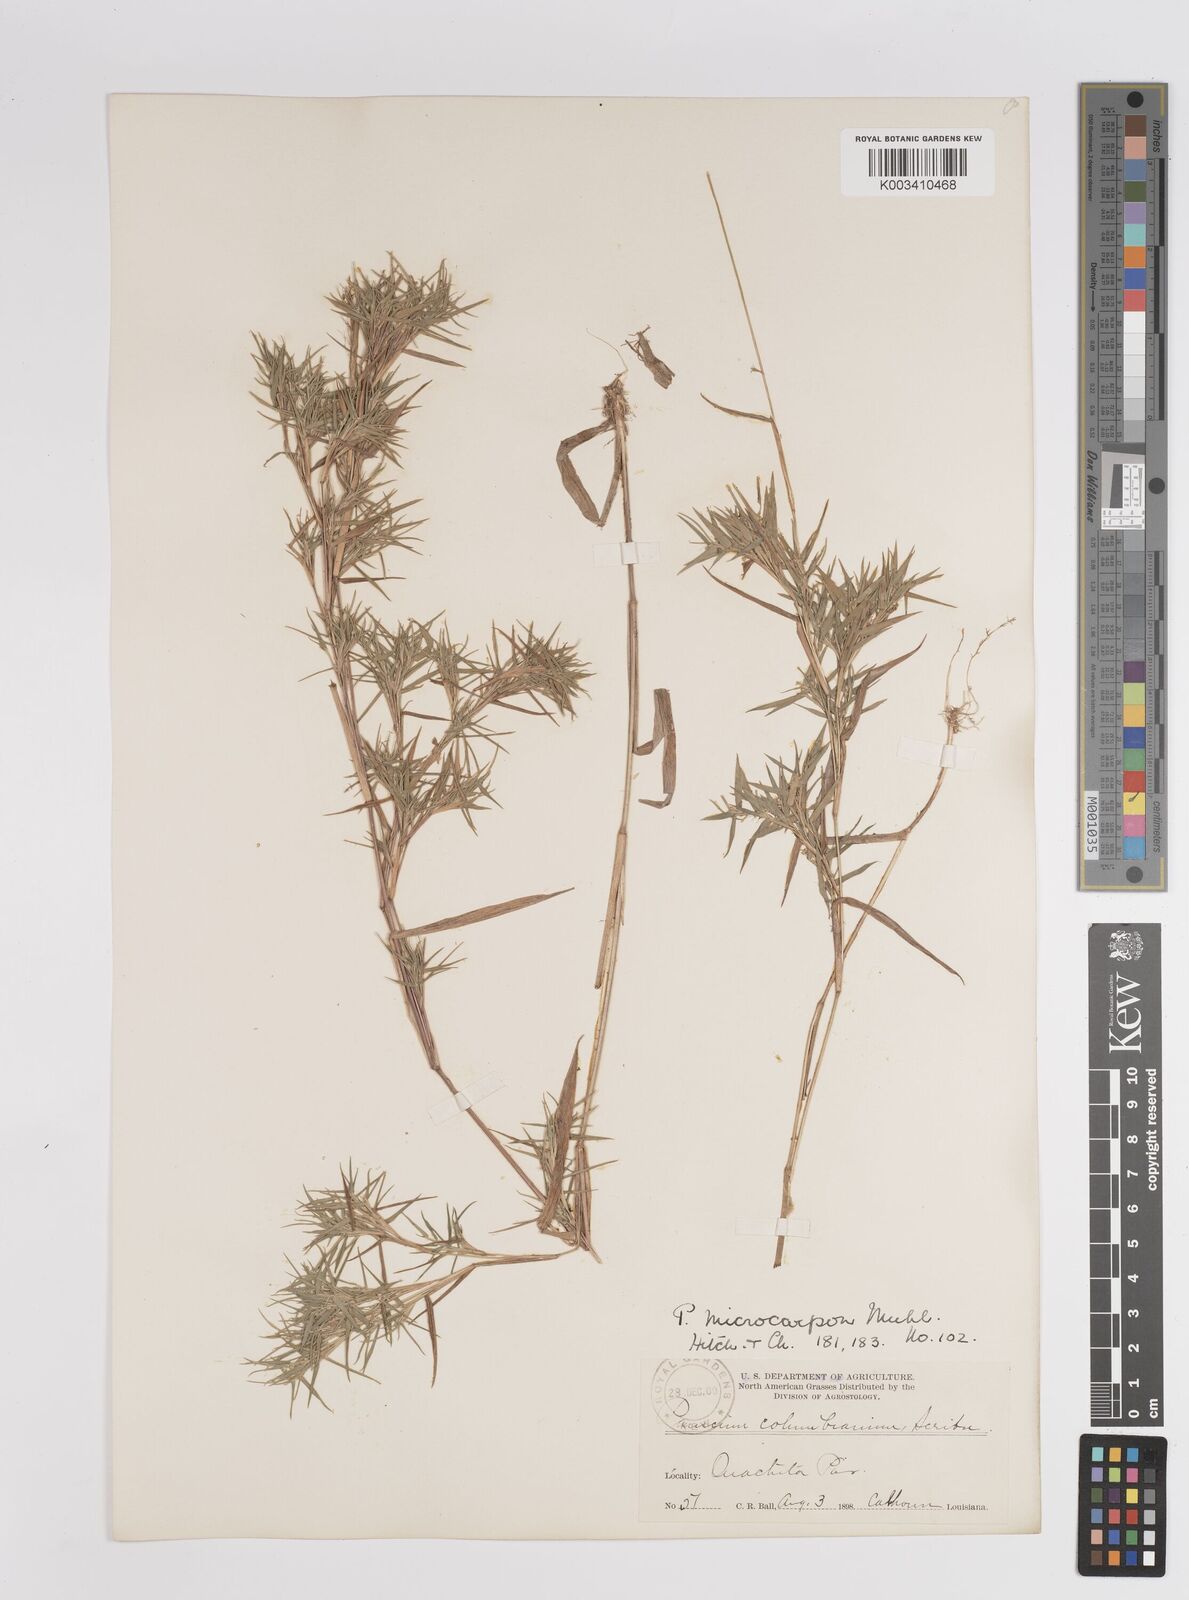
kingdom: Plantae
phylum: Tracheophyta
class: Liliopsida
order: Poales
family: Poaceae
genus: Dichanthelium
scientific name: Dichanthelium polyanthes
